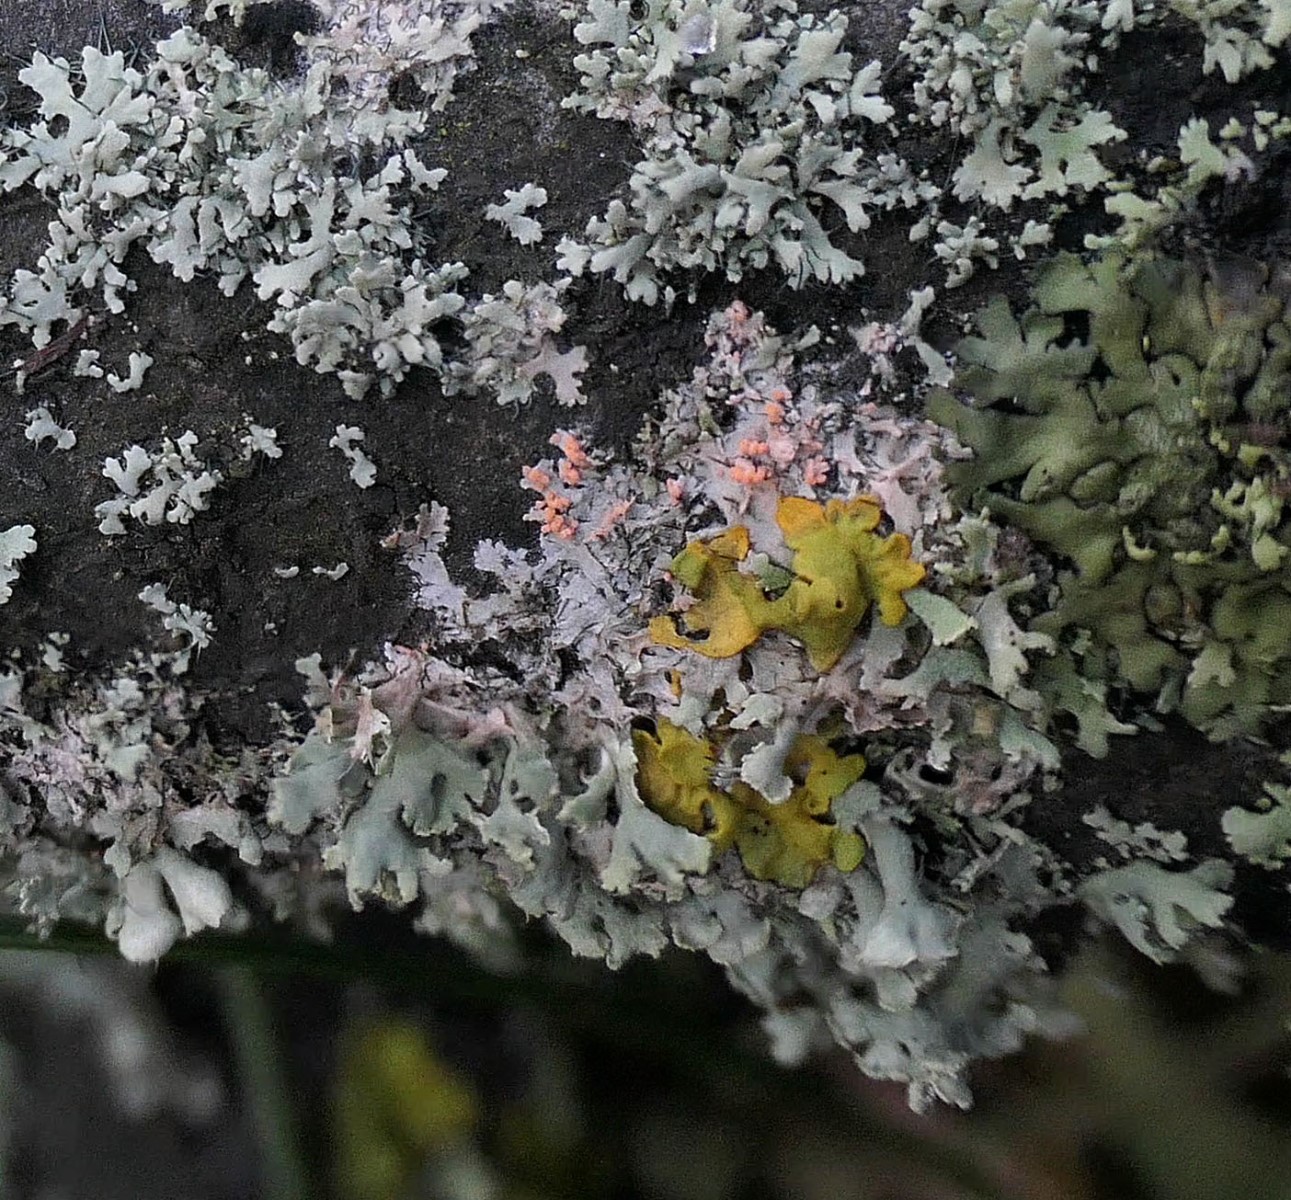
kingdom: Fungi
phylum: Basidiomycota
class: Agaricomycetes
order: Corticiales
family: Corticiaceae
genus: Erythricium
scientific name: Erythricium aurantiacum
